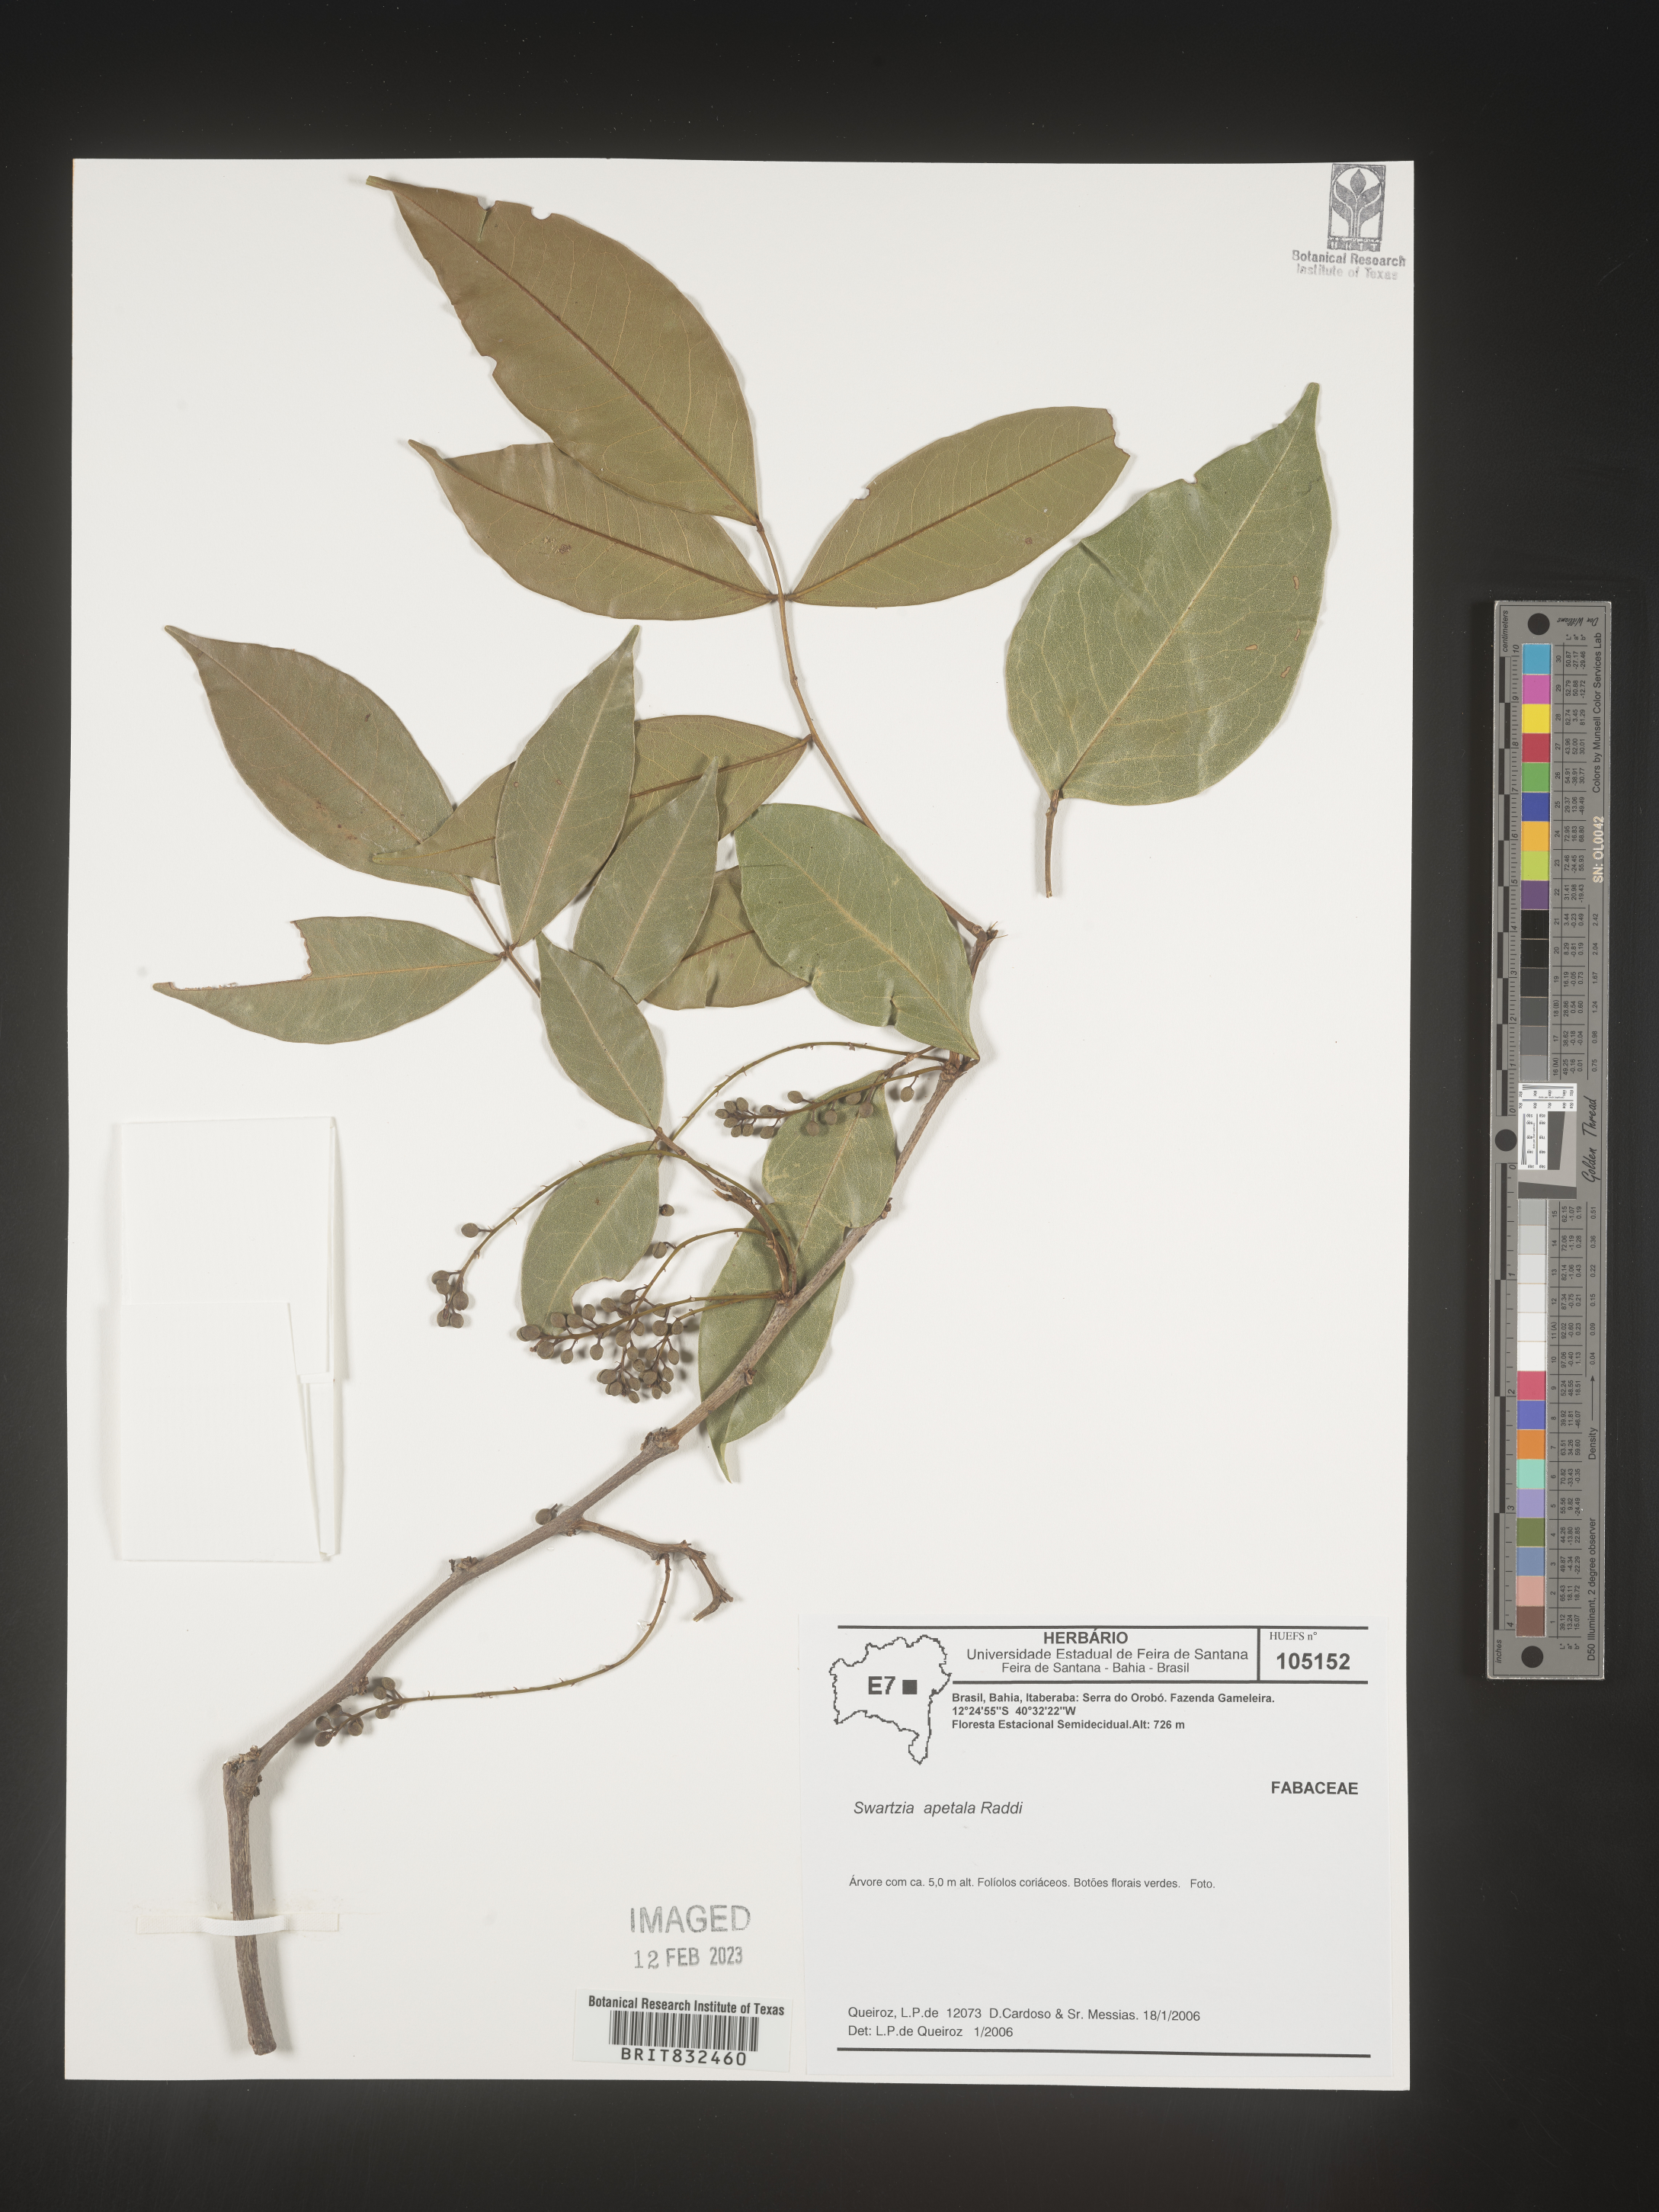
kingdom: Plantae
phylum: Tracheophyta
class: Magnoliopsida
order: Fabales
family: Fabaceae
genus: Swartzia
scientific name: Swartzia
